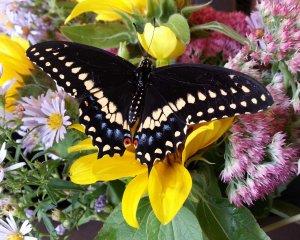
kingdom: Animalia
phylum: Arthropoda
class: Insecta
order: Lepidoptera
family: Papilionidae
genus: Papilio
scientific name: Papilio polyxenes
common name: Black Swallowtail
